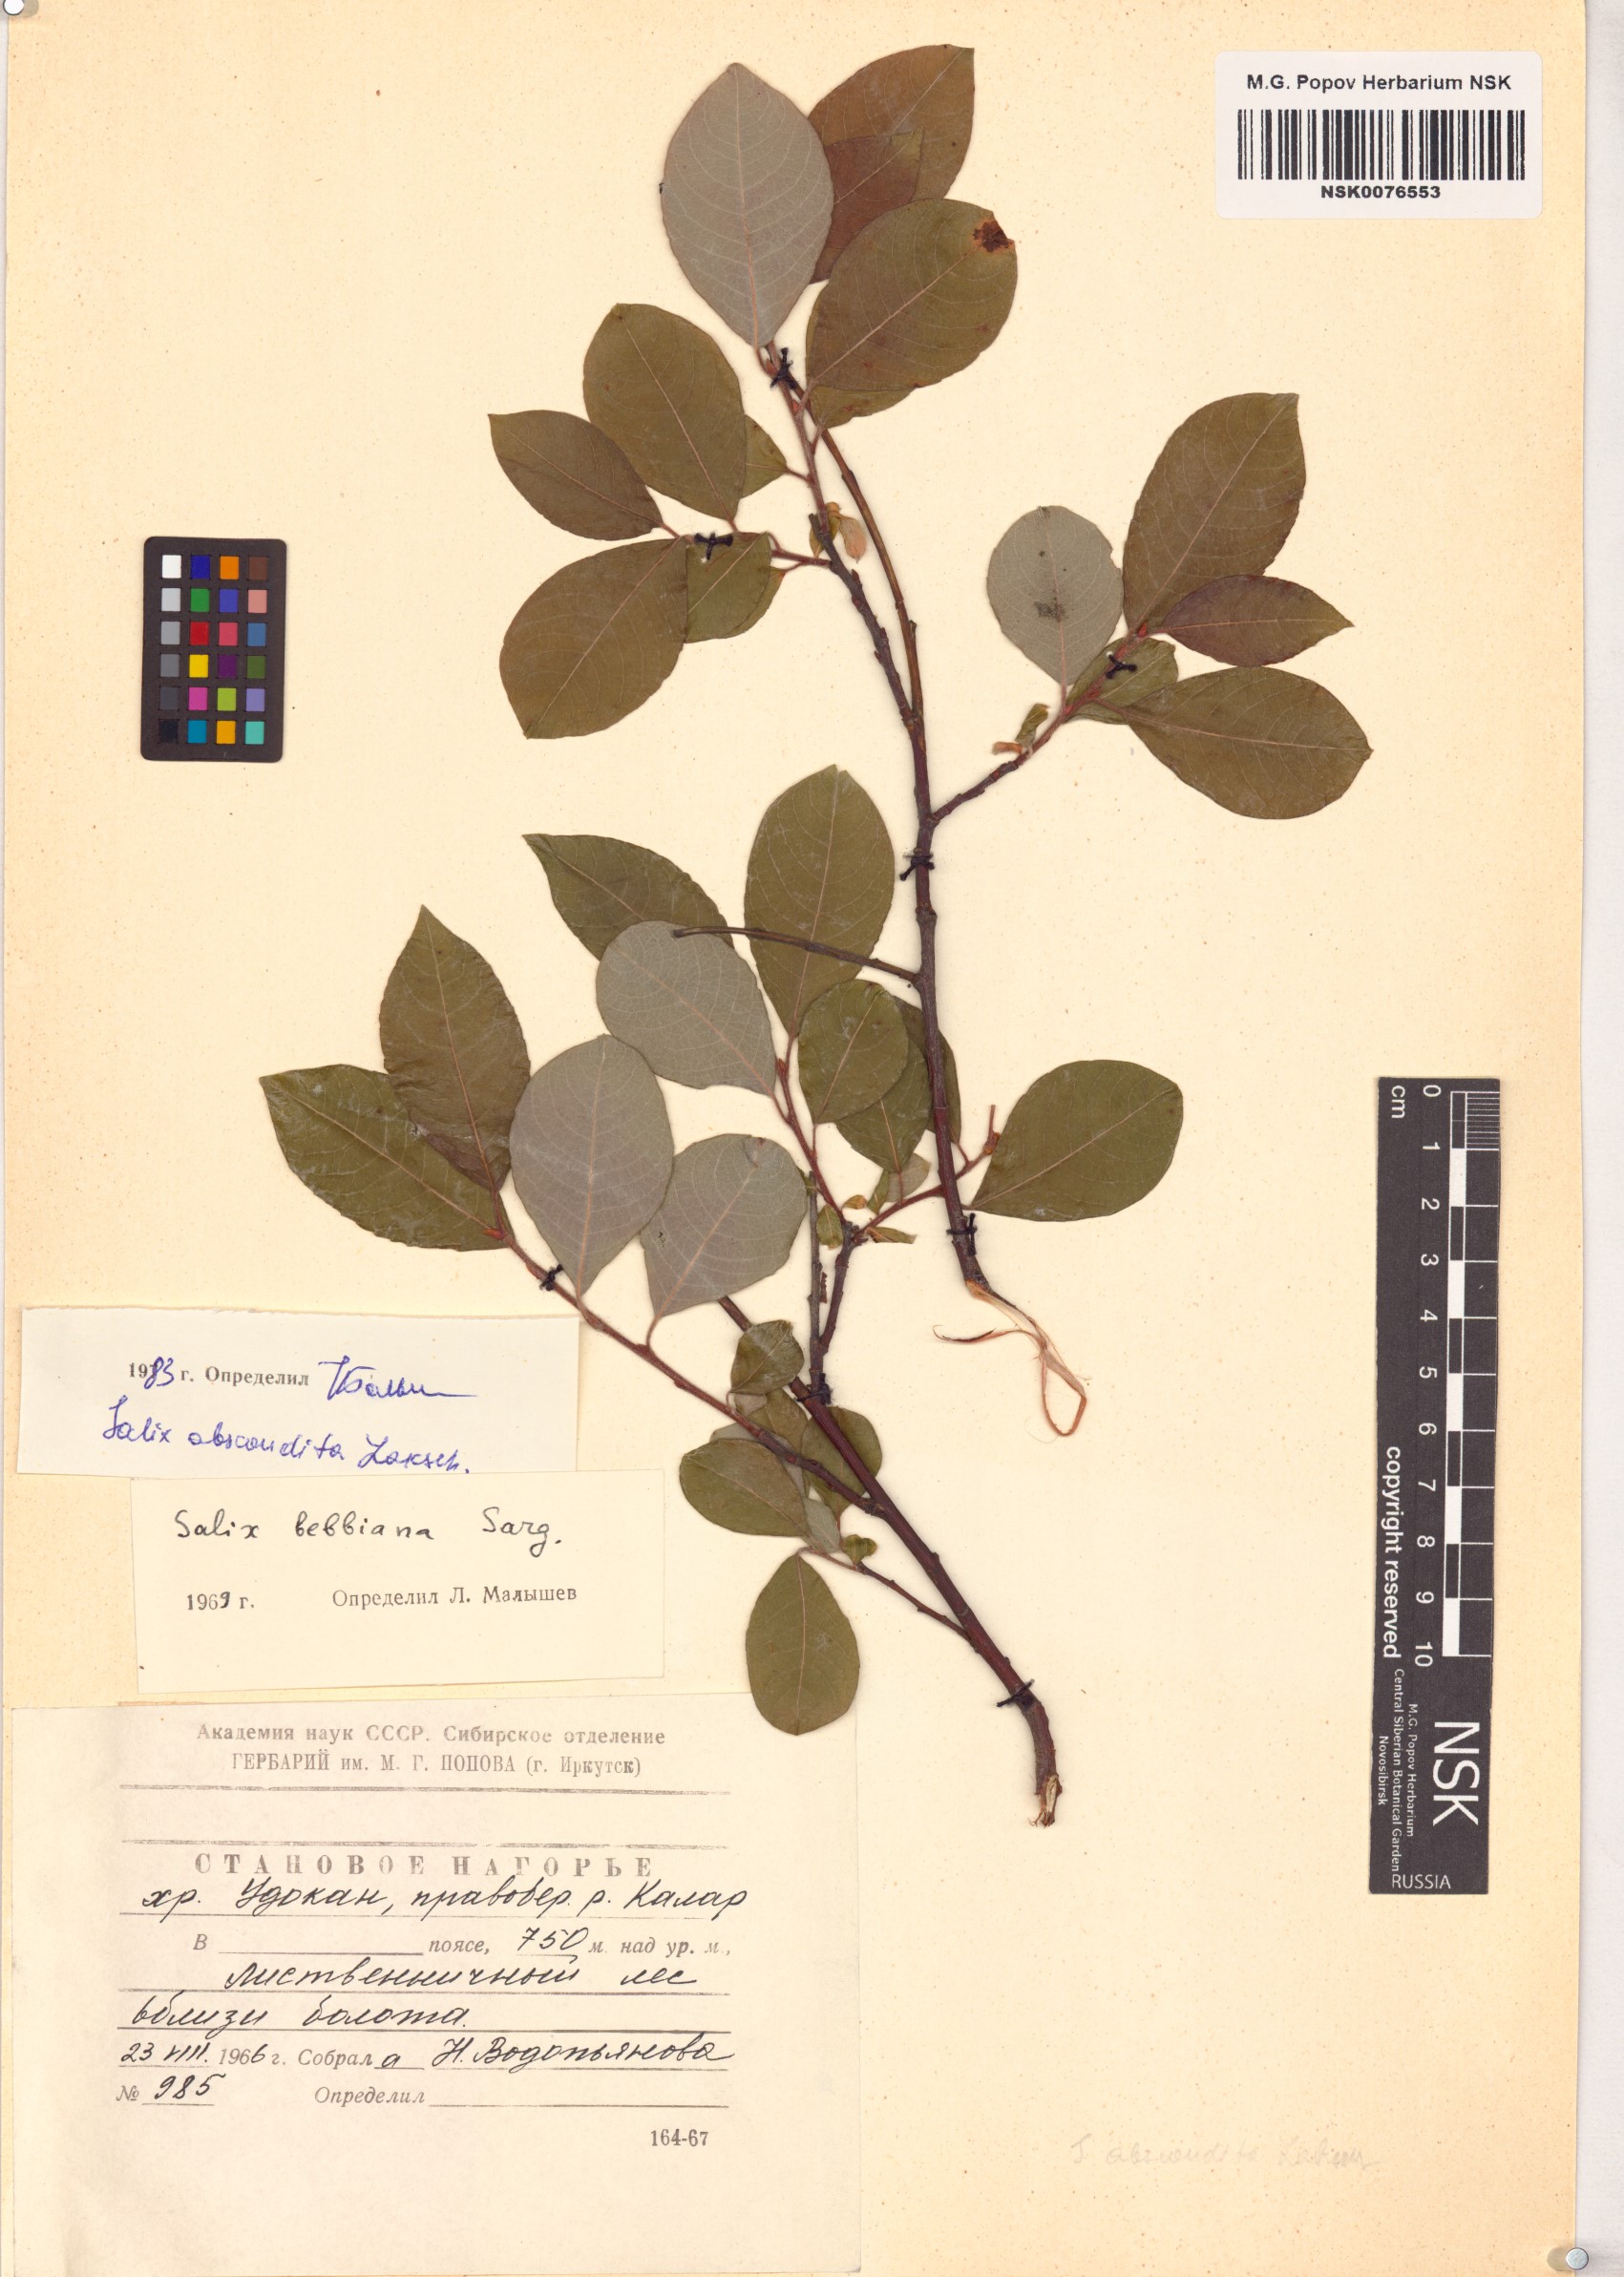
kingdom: Plantae
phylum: Tracheophyta
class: Magnoliopsida
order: Malpighiales
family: Salicaceae
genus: Salix
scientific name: Salix abscondita
